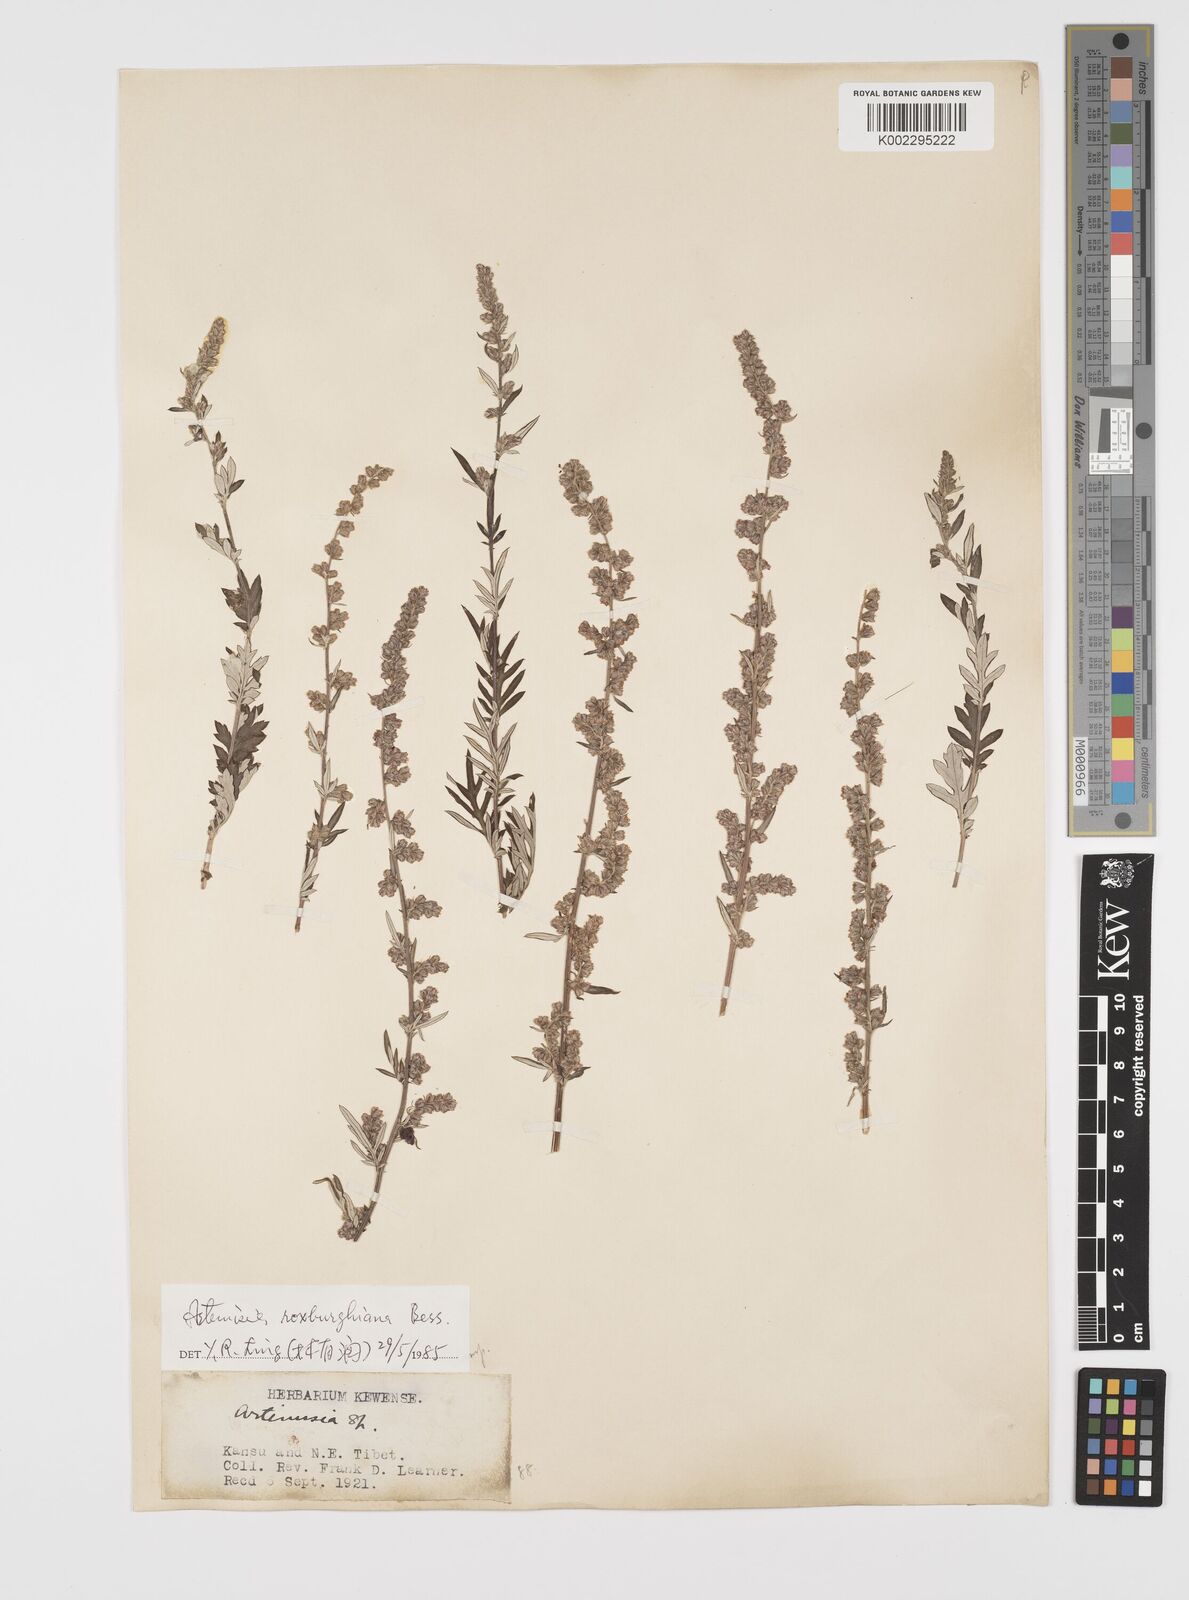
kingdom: Plantae
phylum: Tracheophyta
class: Magnoliopsida
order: Asterales
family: Asteraceae
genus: Artemisia
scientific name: Artemisia roxburghiana
